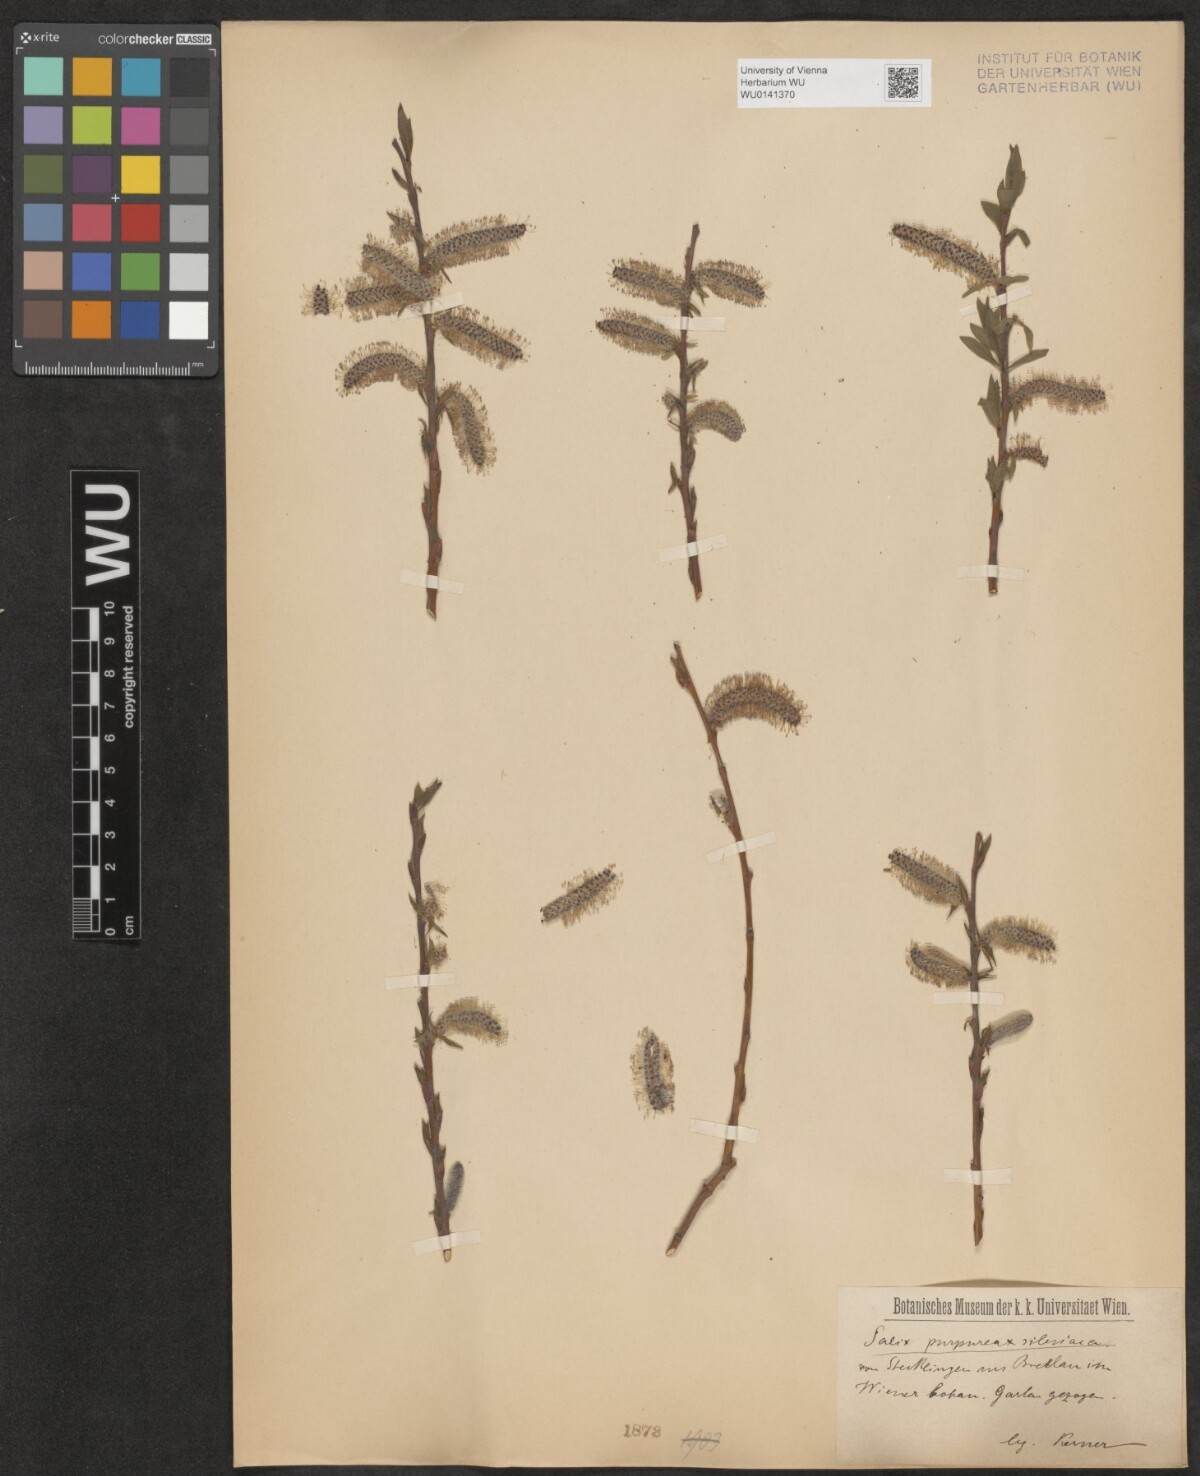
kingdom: Plantae
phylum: Tracheophyta
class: Magnoliopsida
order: Malpighiales
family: Salicaceae
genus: Salix
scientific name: Salix purpurea
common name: Purple willow
